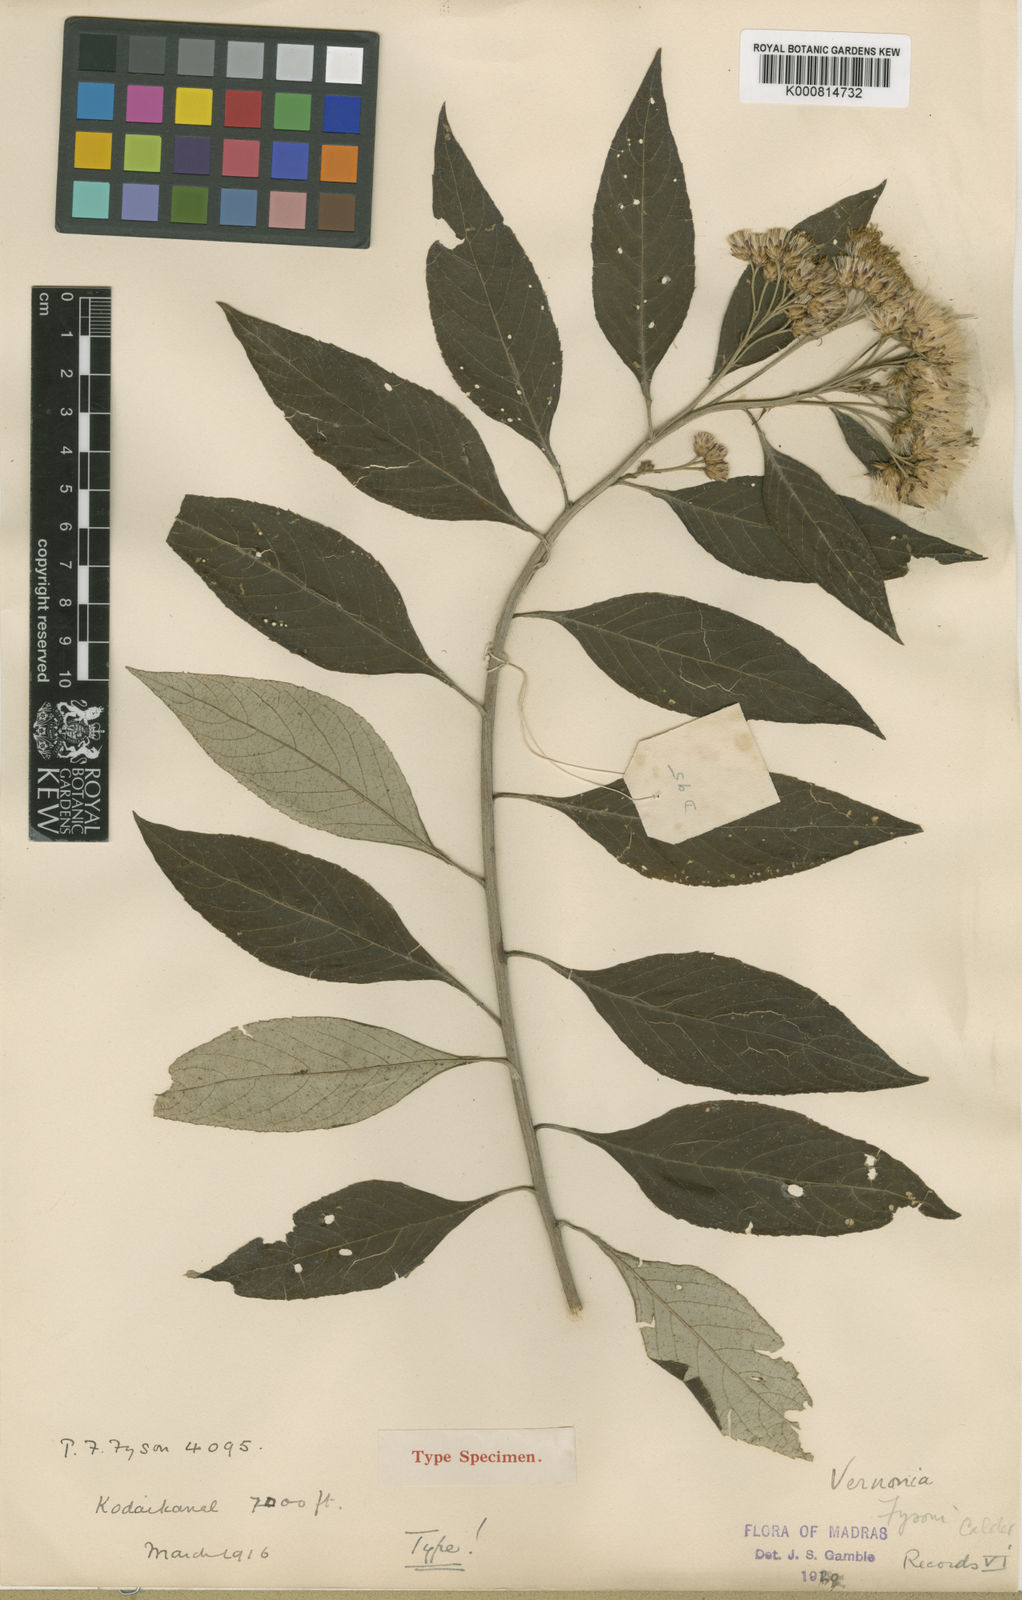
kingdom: Plantae
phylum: Tracheophyta
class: Magnoliopsida
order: Asterales
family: Asteraceae
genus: Acilepis
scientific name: Acilepis fysonii
